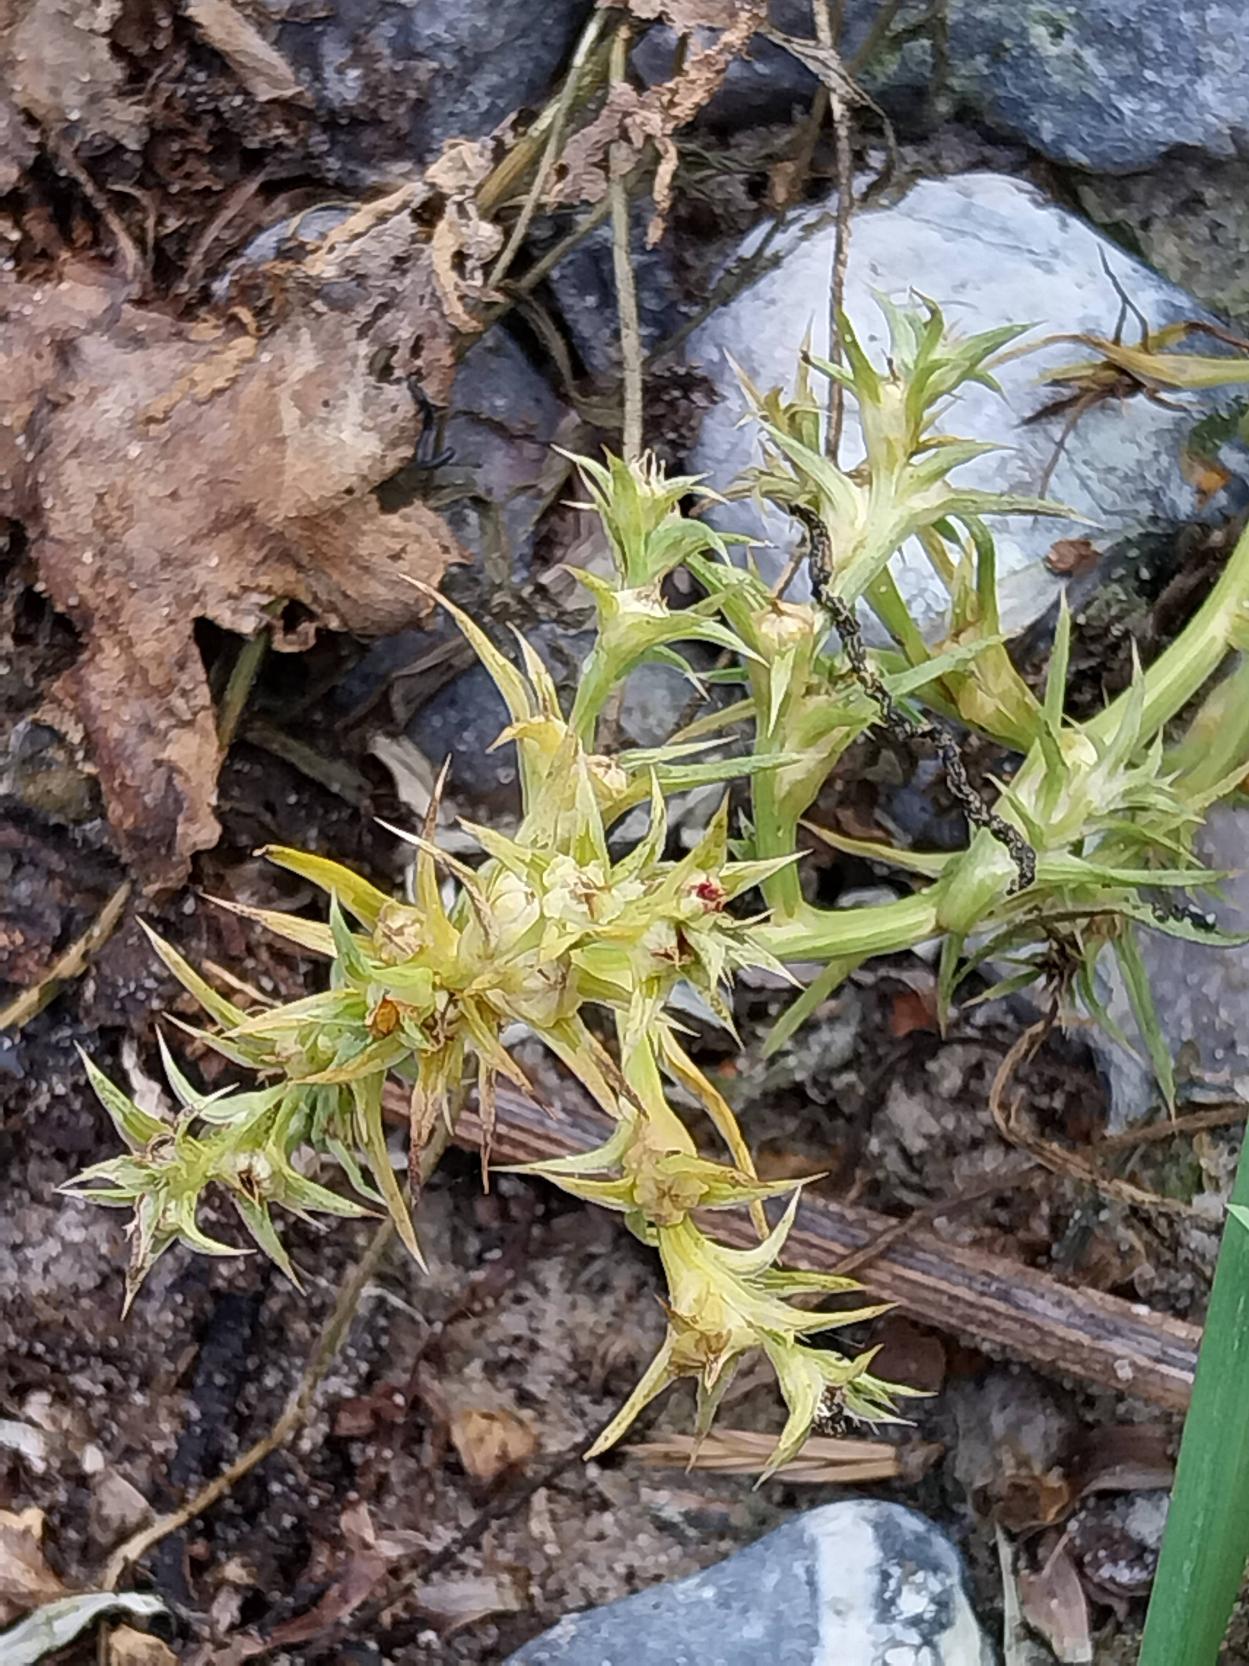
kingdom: Plantae
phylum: Tracheophyta
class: Magnoliopsida
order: Caryophyllales
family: Amaranthaceae
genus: Salsola
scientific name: Salsola kali
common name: Sodaurt
